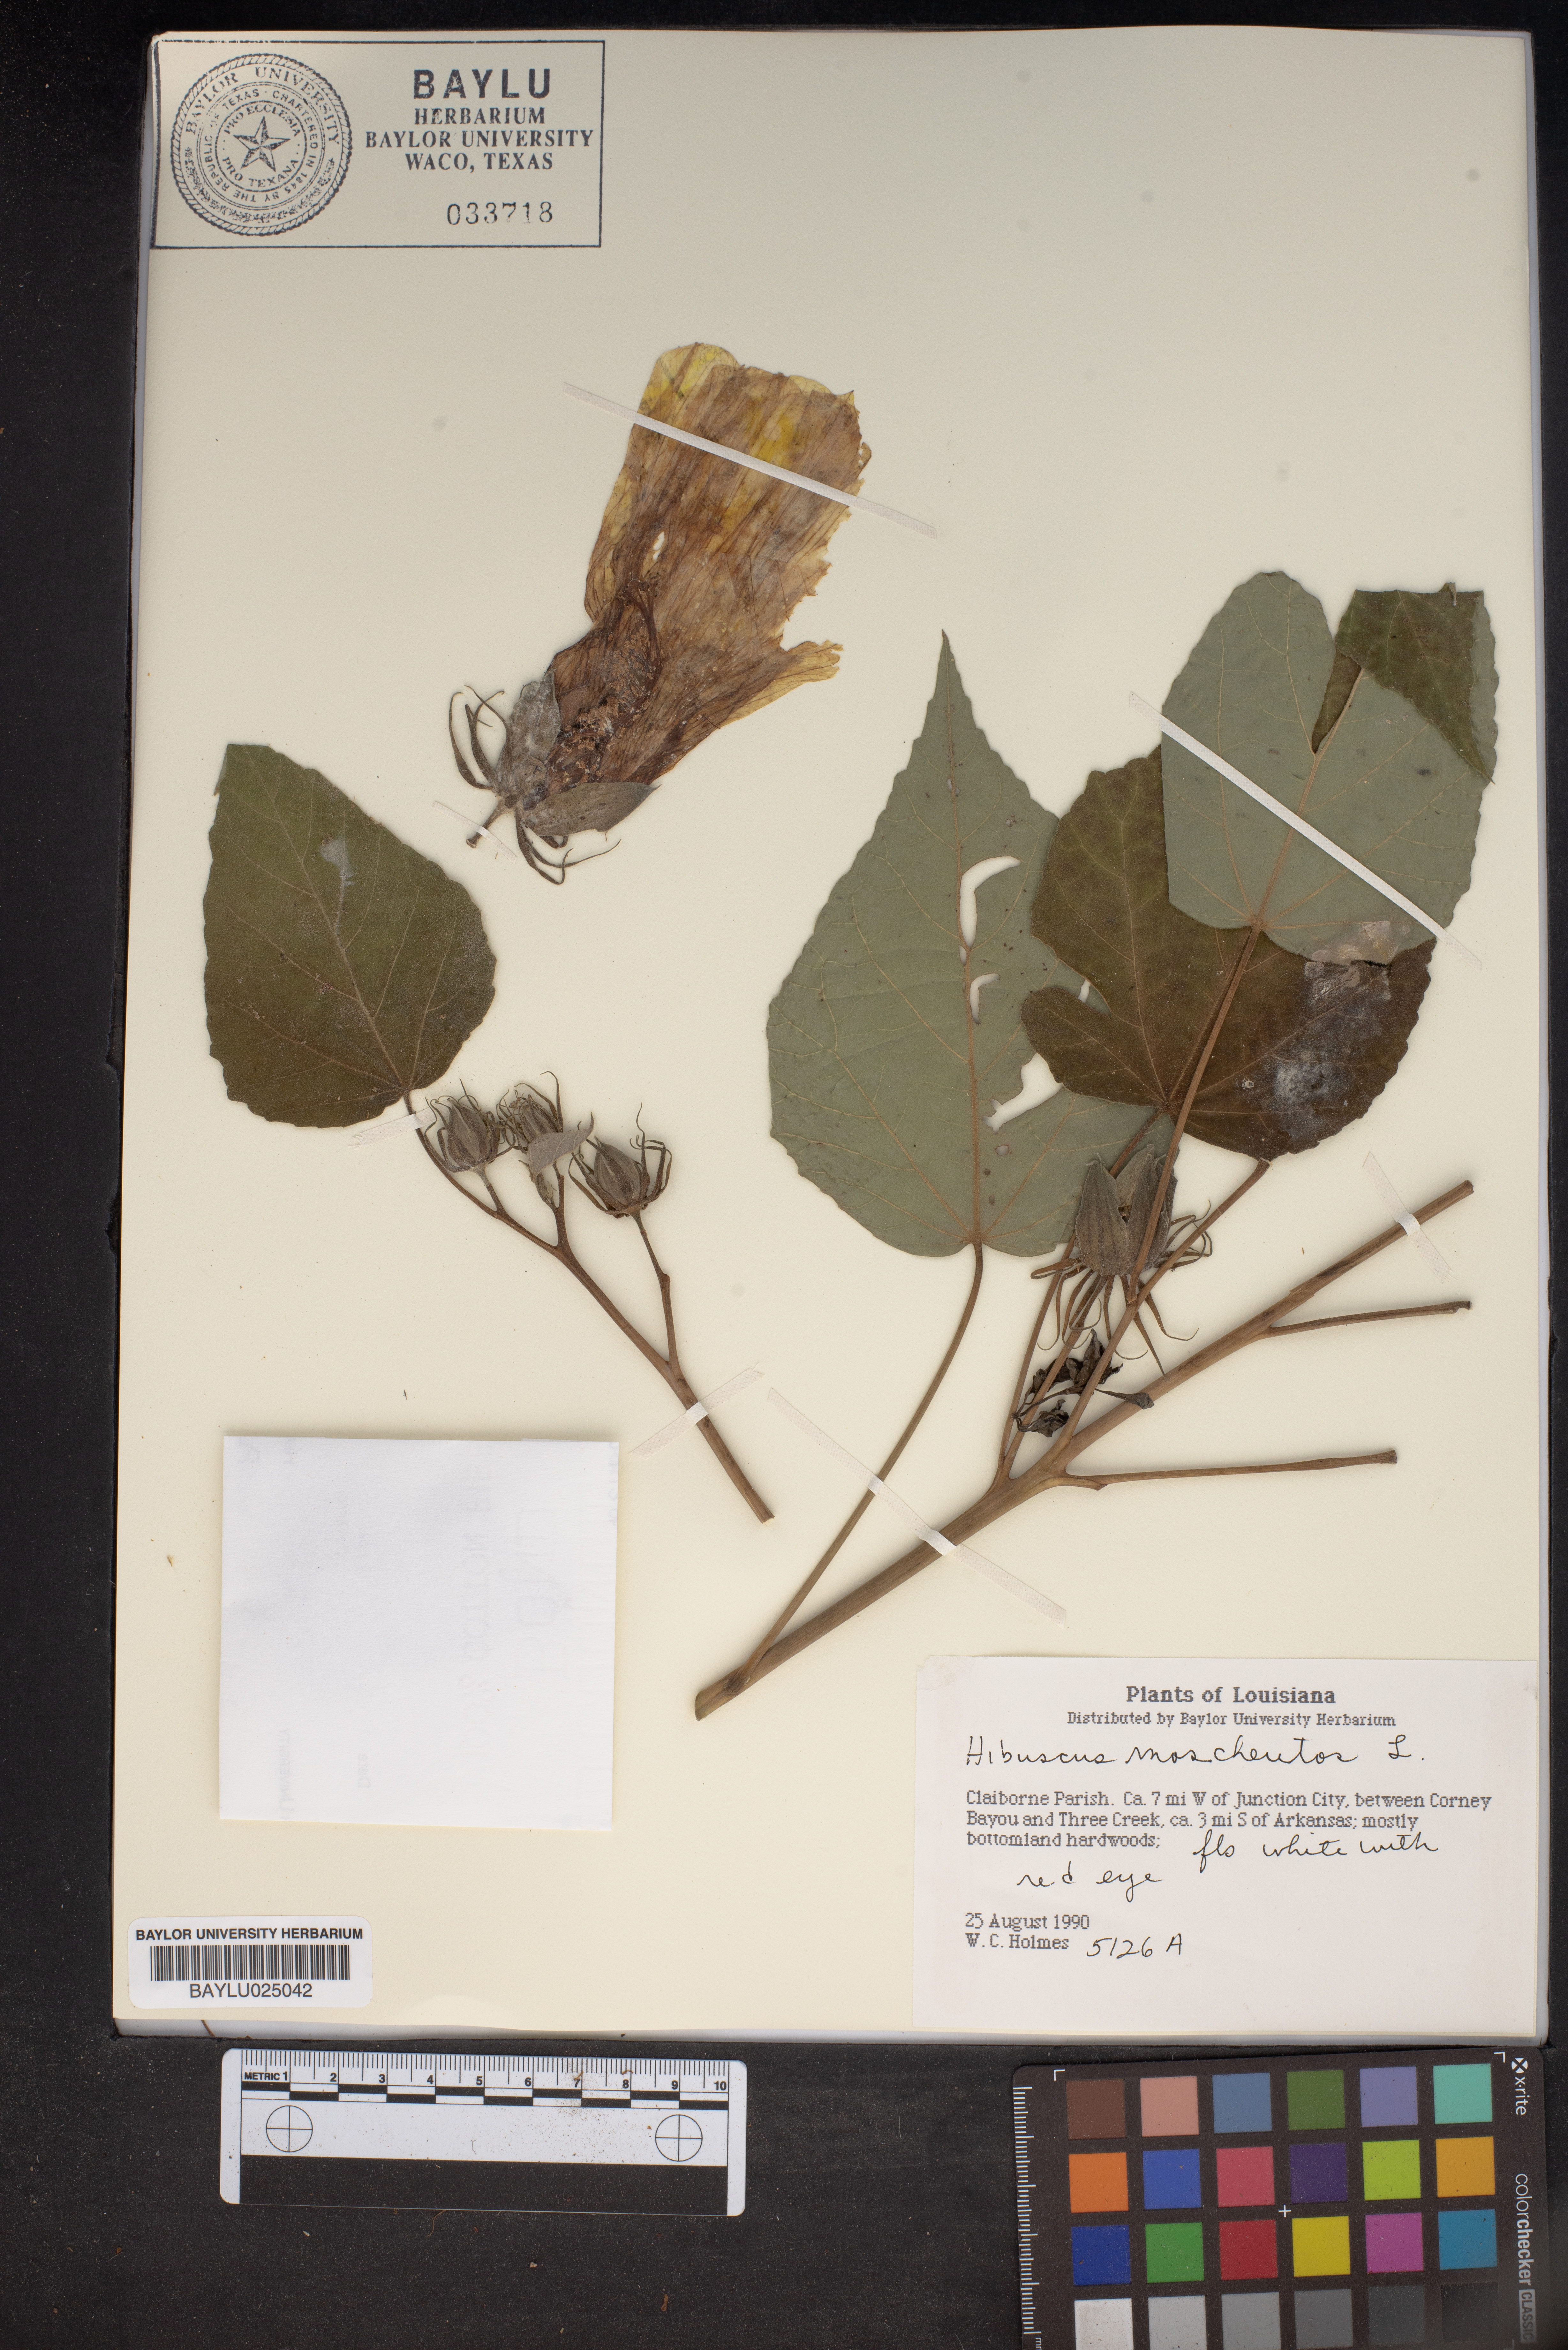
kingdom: Plantae
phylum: Tracheophyta
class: Magnoliopsida
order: Malvales
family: Malvaceae
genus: Hibiscus
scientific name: Hibiscus moscheutos
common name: Common rose-mallow
